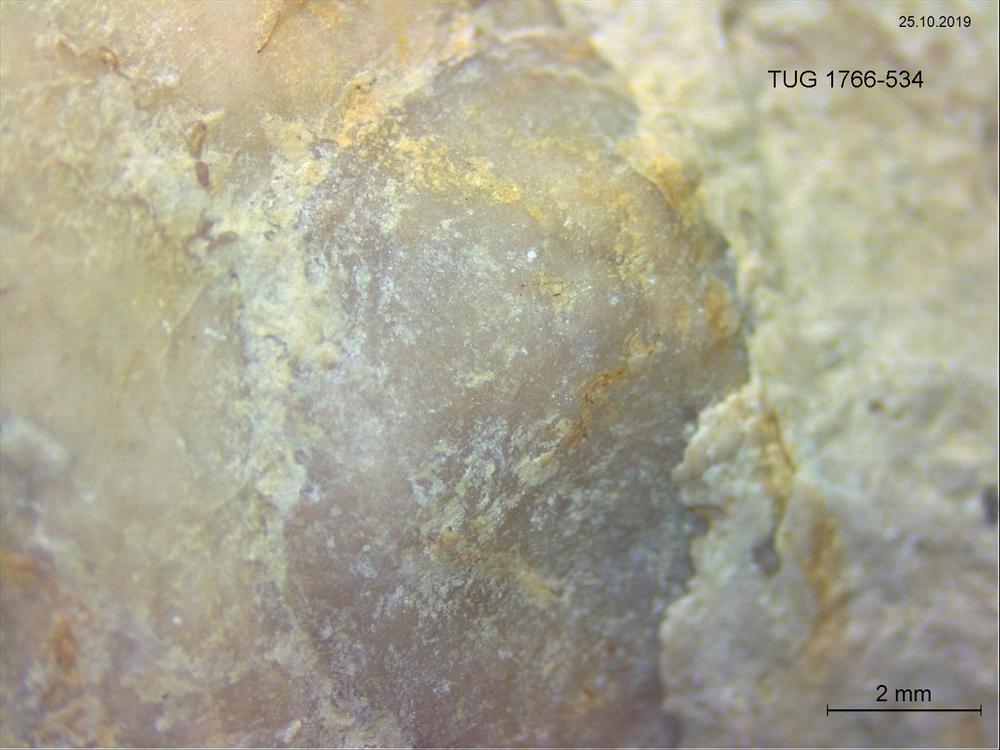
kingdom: Animalia
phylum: Brachiopoda
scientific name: Brachiopoda
